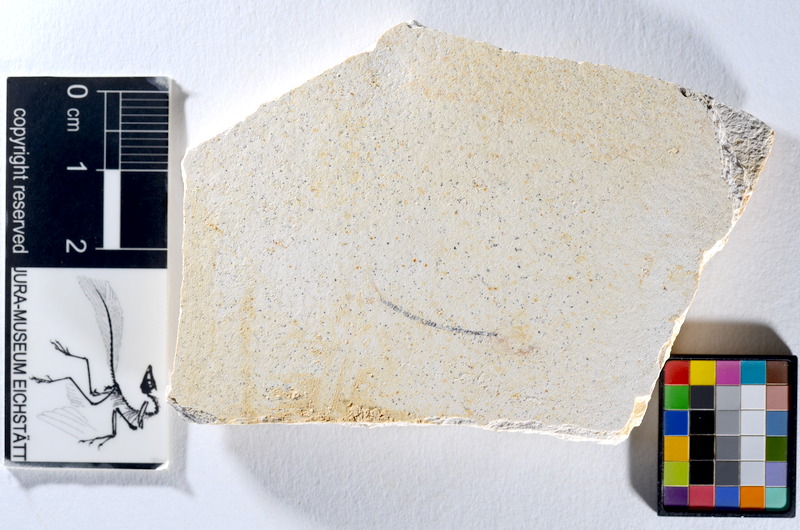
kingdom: Animalia
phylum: Chordata
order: Salmoniformes
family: Orthogonikleithridae
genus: Orthogonikleithrus
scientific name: Orthogonikleithrus hoelli
